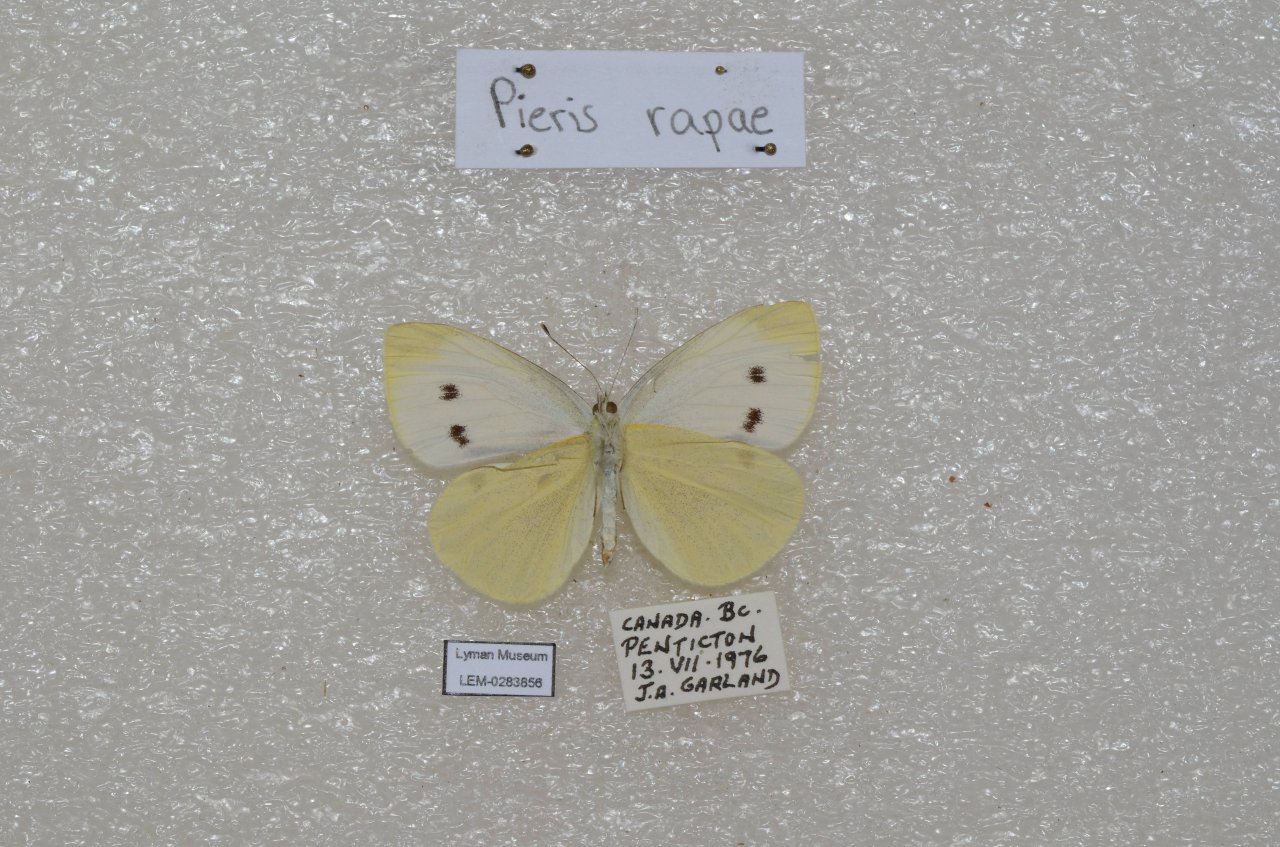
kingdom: Animalia
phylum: Arthropoda
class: Insecta
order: Lepidoptera
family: Pieridae
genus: Pieris
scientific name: Pieris rapae
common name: Cabbage White
